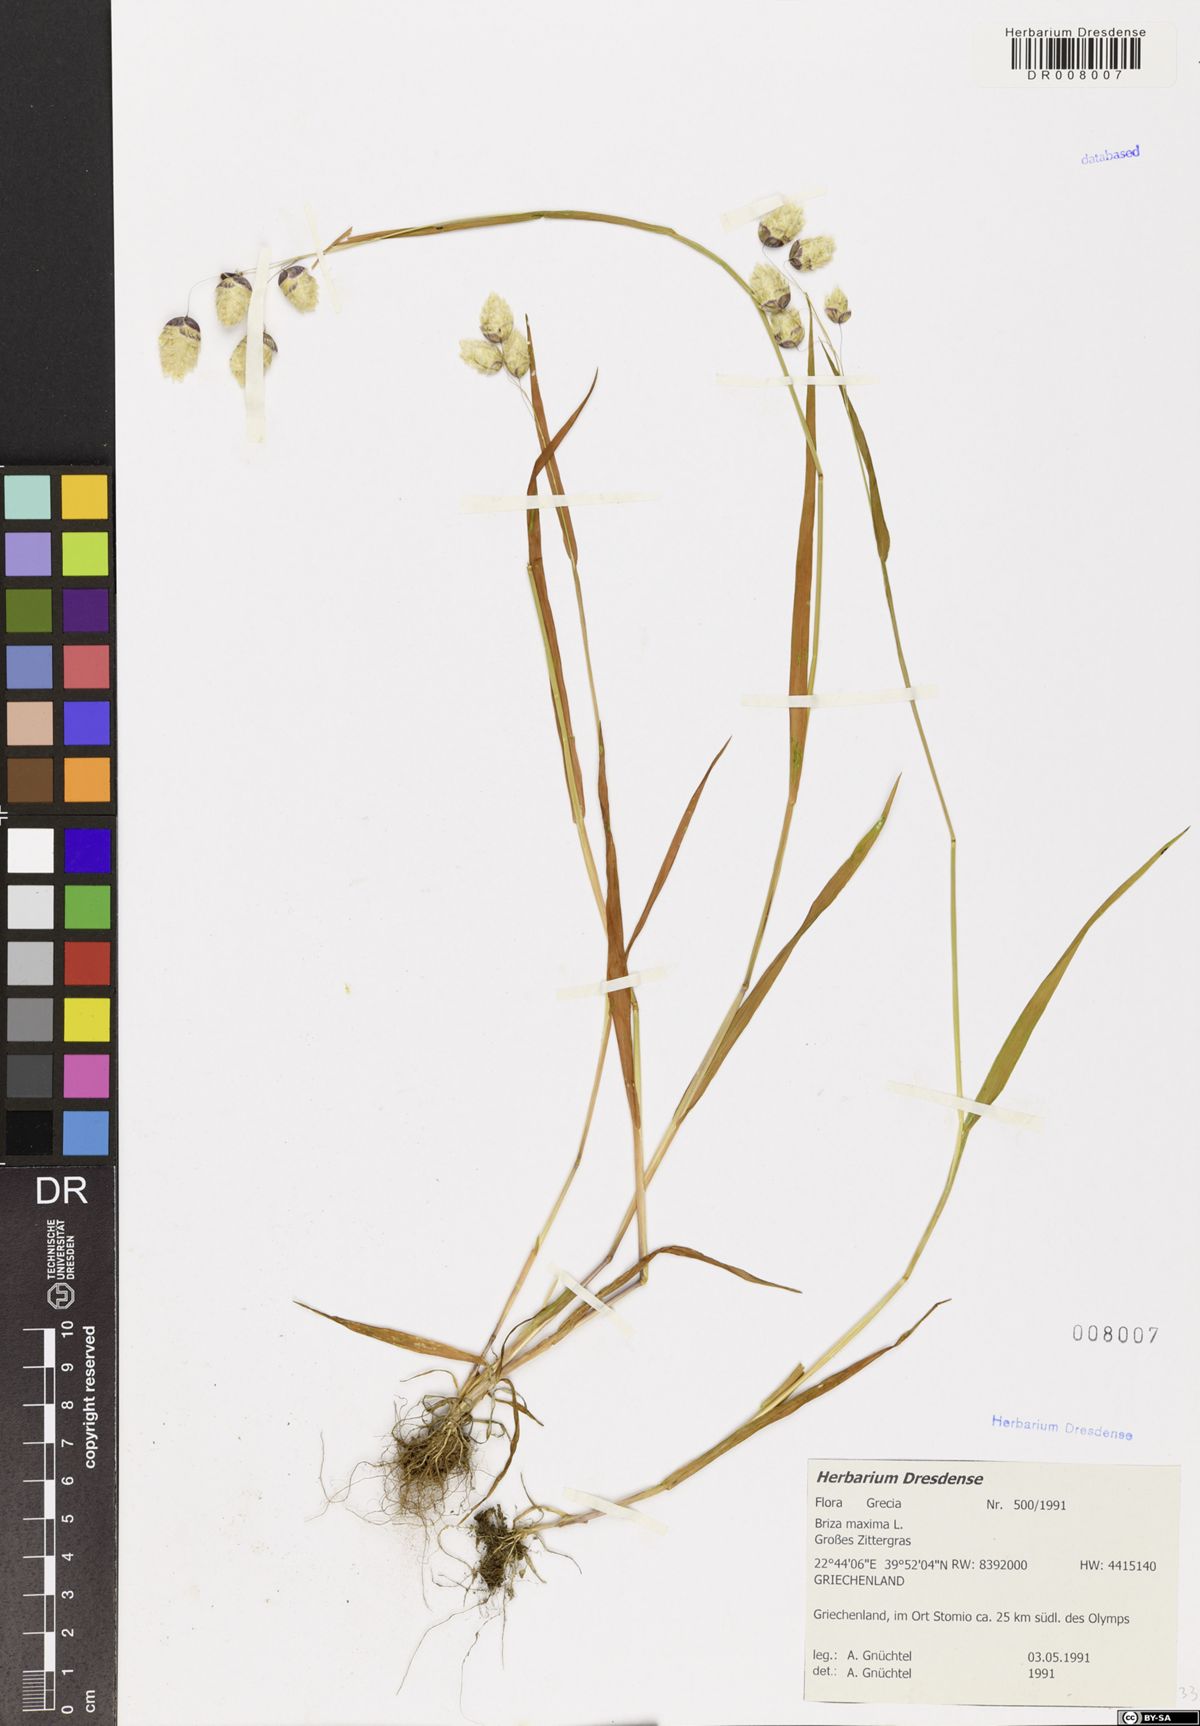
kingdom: Plantae
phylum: Tracheophyta
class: Liliopsida
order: Poales
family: Poaceae
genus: Briza
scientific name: Briza maxima
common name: Big quakinggrass
